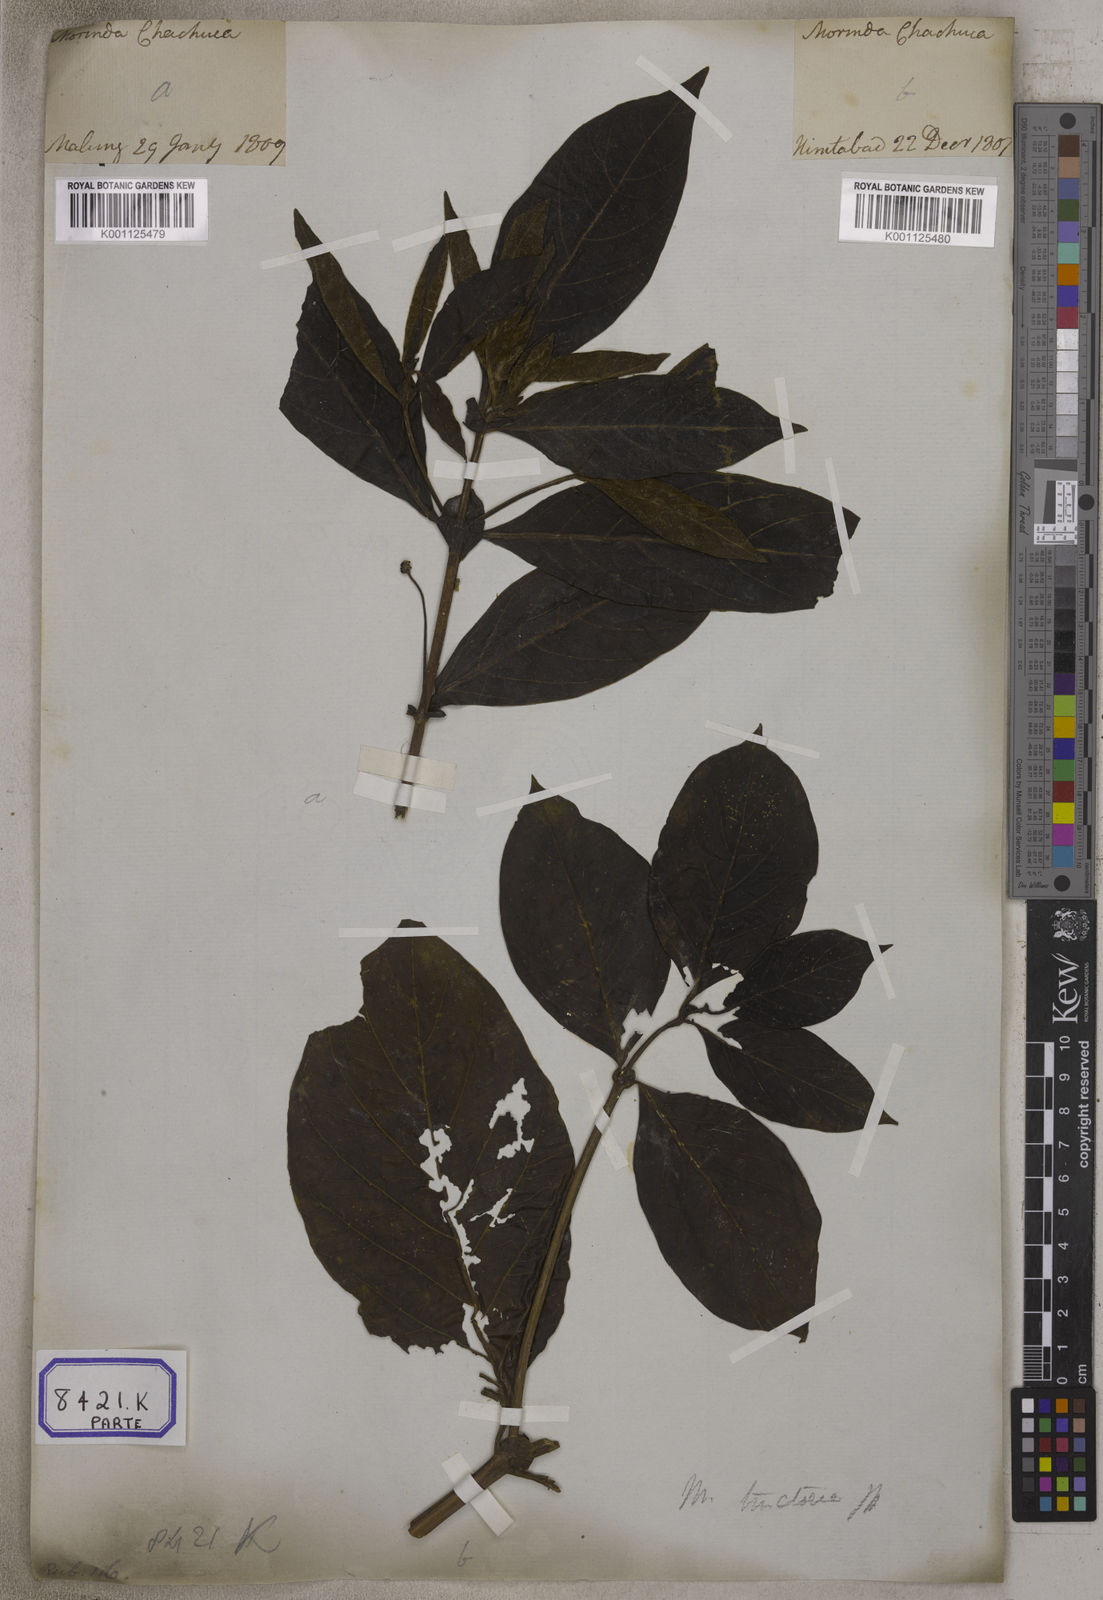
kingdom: Plantae
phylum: Tracheophyta
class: Magnoliopsida
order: Gentianales
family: Rubiaceae
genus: Morinda
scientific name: Morinda coreia
